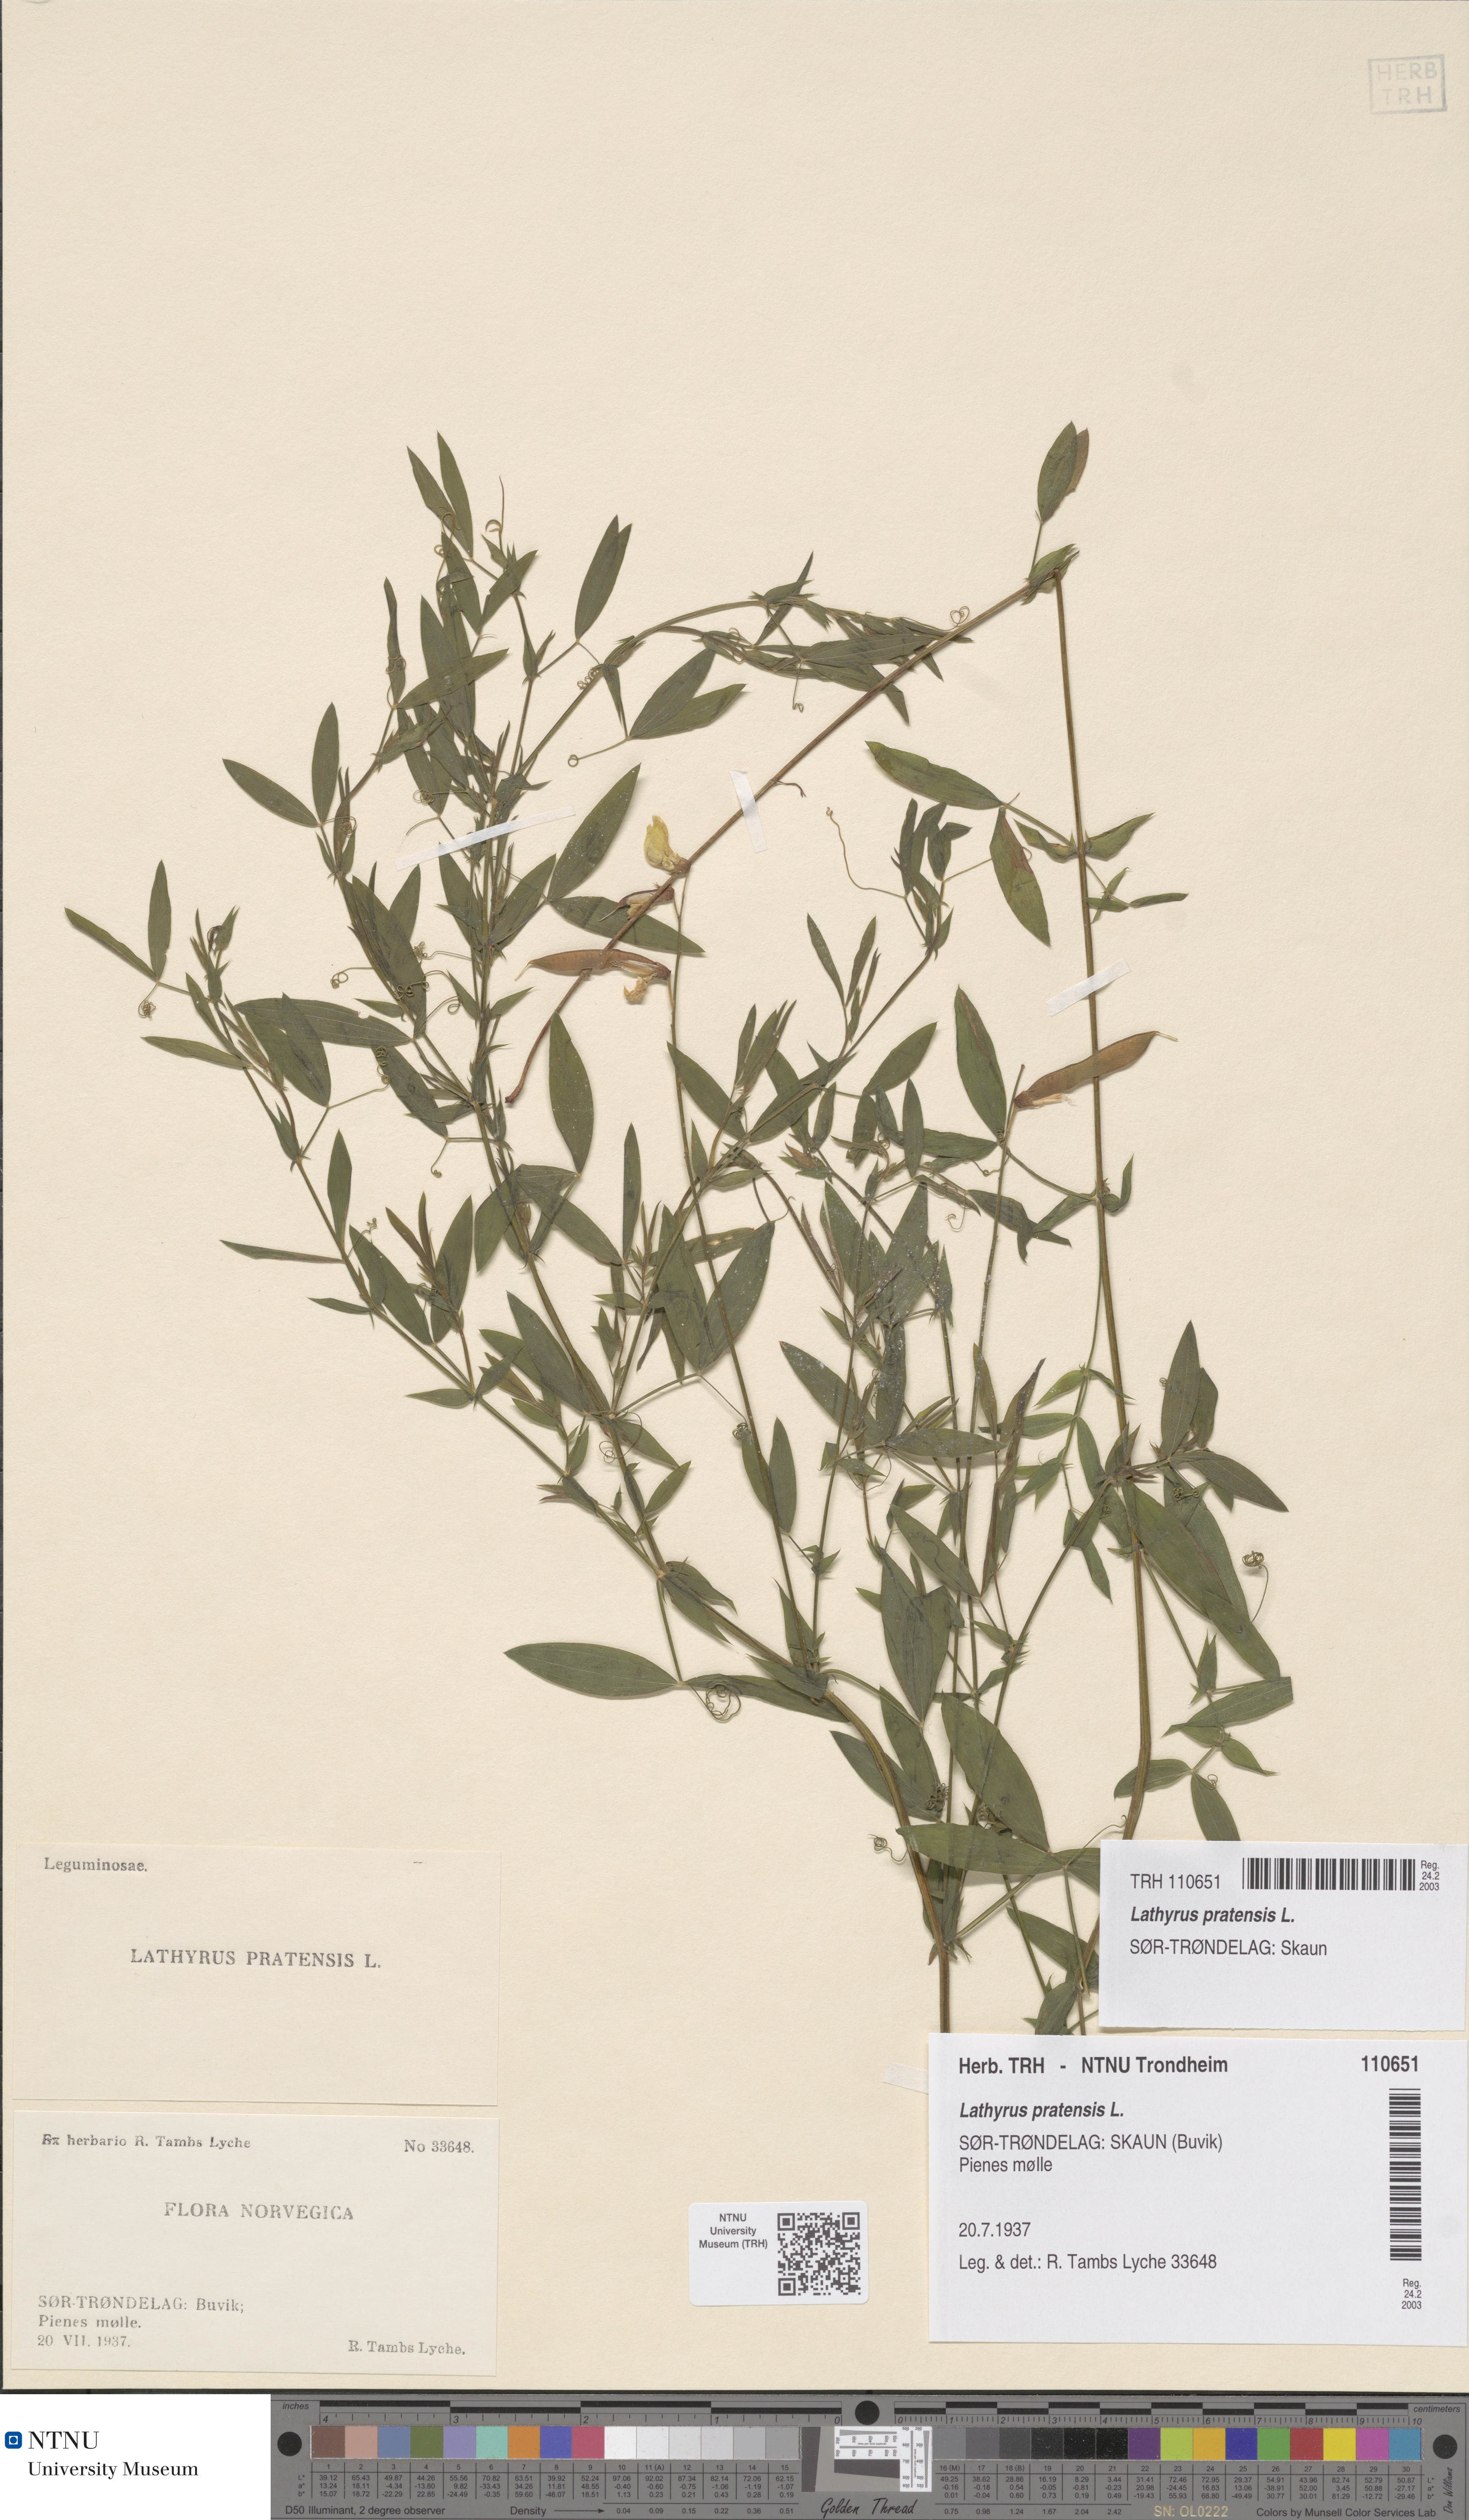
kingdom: Plantae
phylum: Tracheophyta
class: Magnoliopsida
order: Fabales
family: Fabaceae
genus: Lathyrus
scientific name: Lathyrus pratensis
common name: Meadow vetchling
